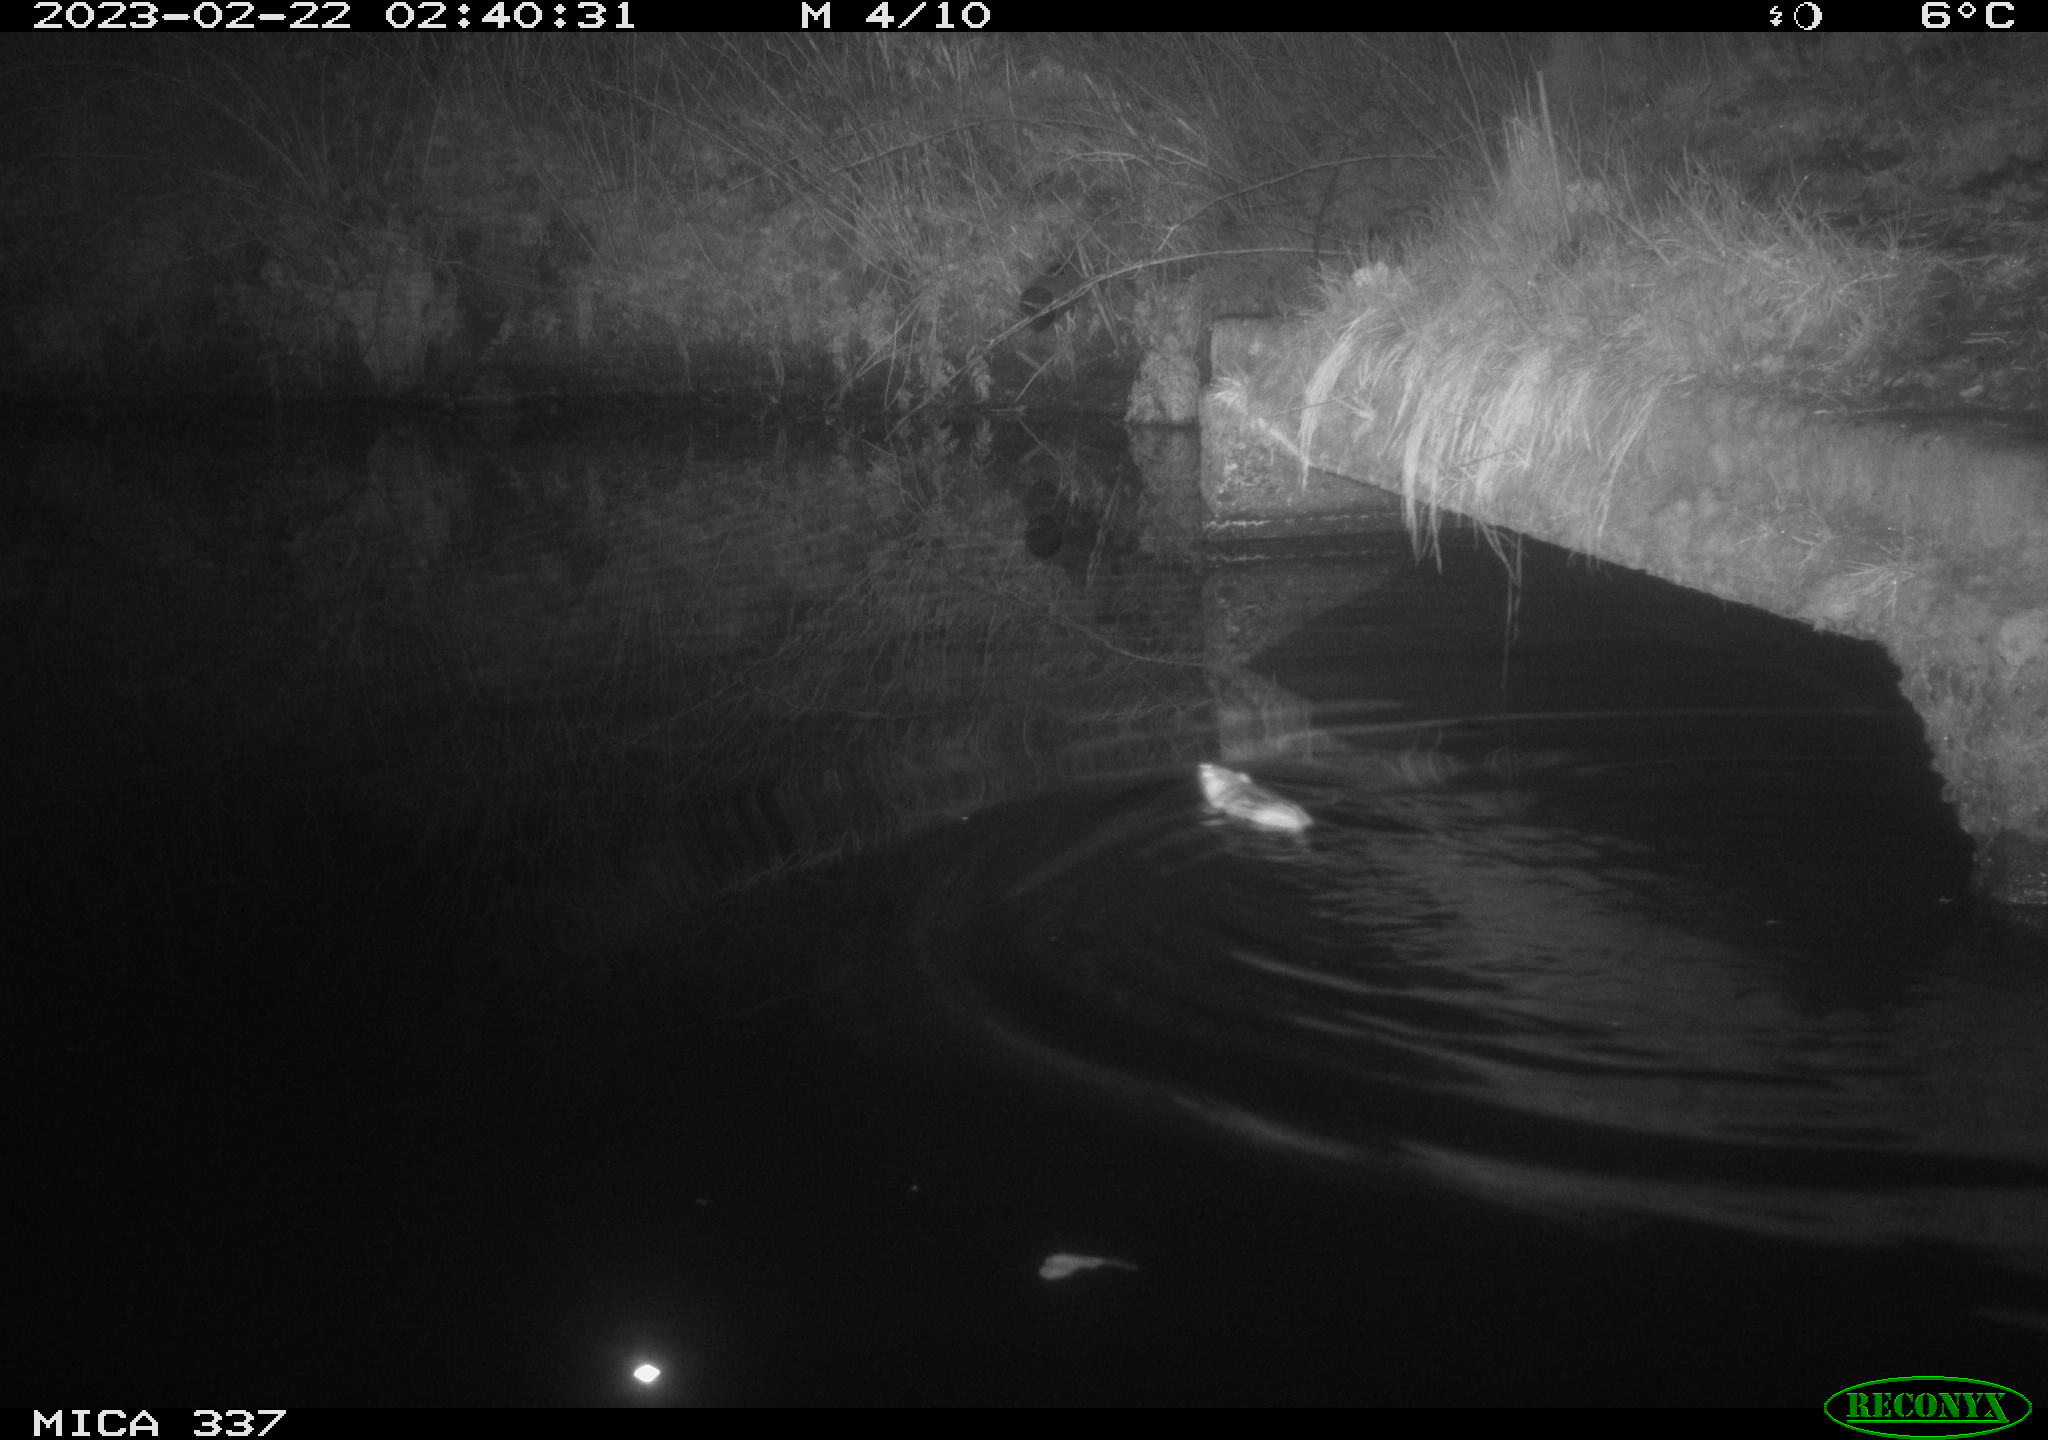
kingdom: Animalia
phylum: Chordata
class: Mammalia
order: Rodentia
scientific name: Rodentia
